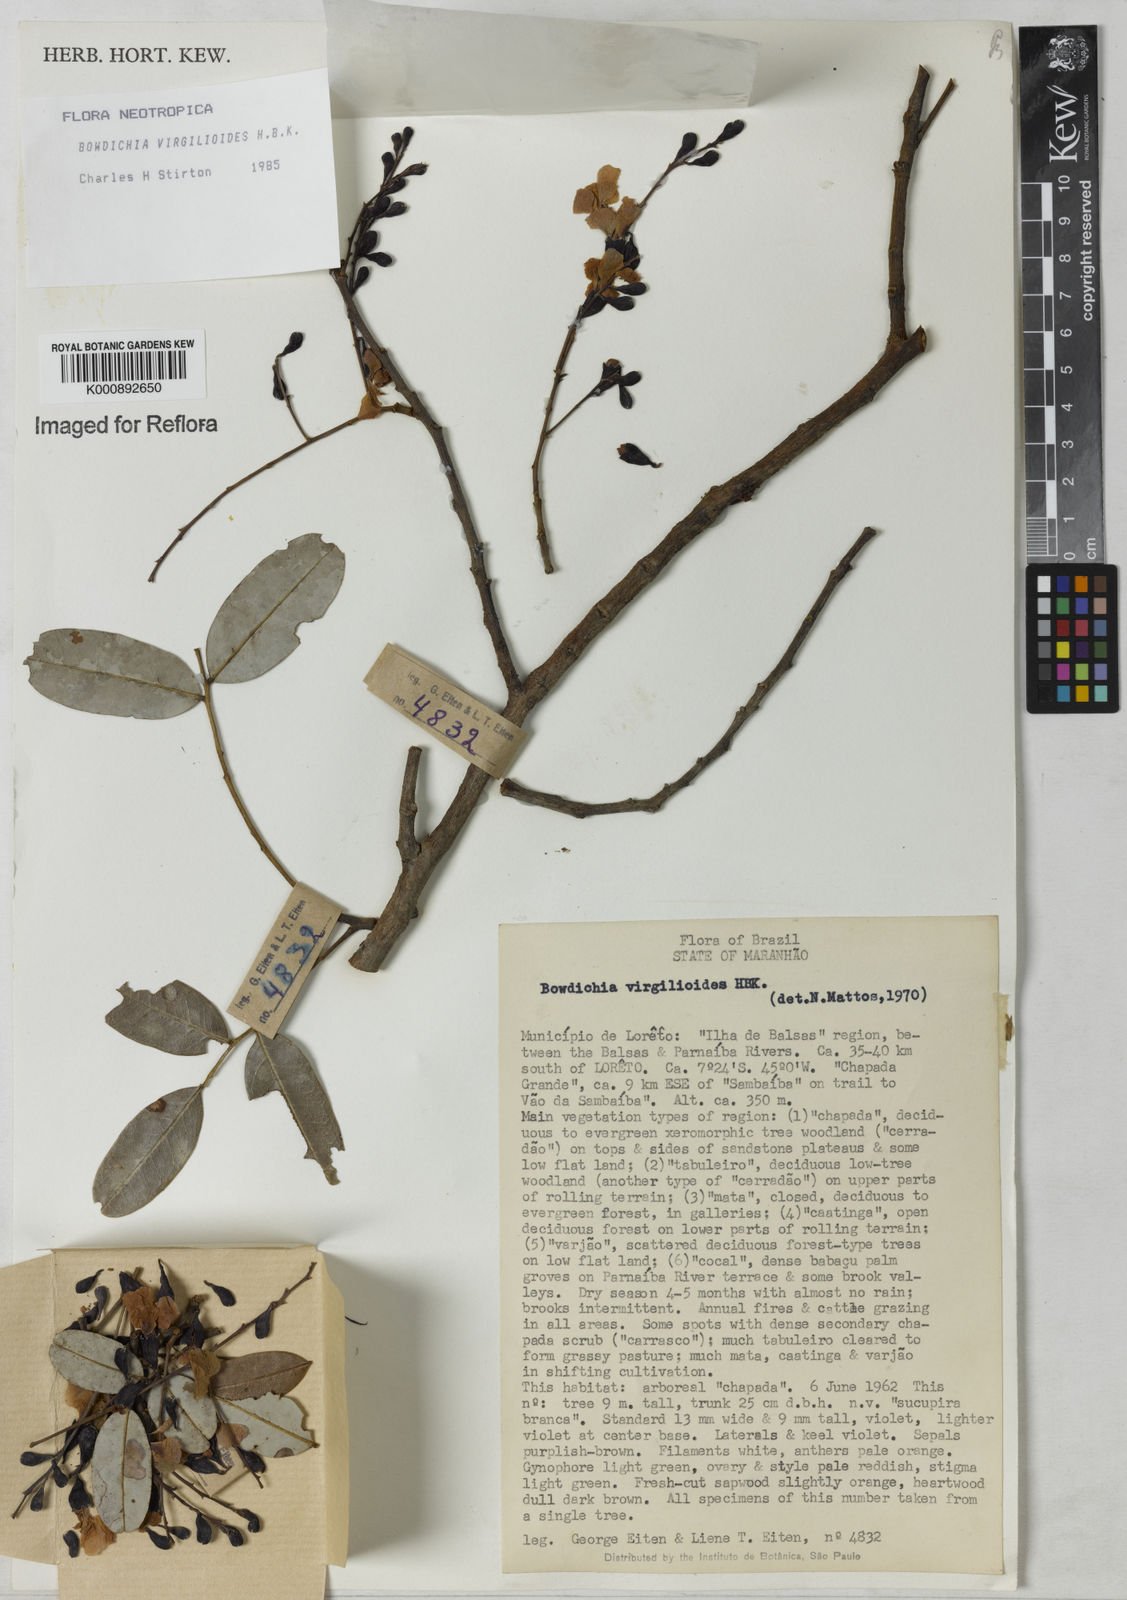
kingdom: Plantae
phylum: Tracheophyta
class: Magnoliopsida
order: Fabales
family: Fabaceae
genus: Bowdichia
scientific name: Bowdichia virgilioides
